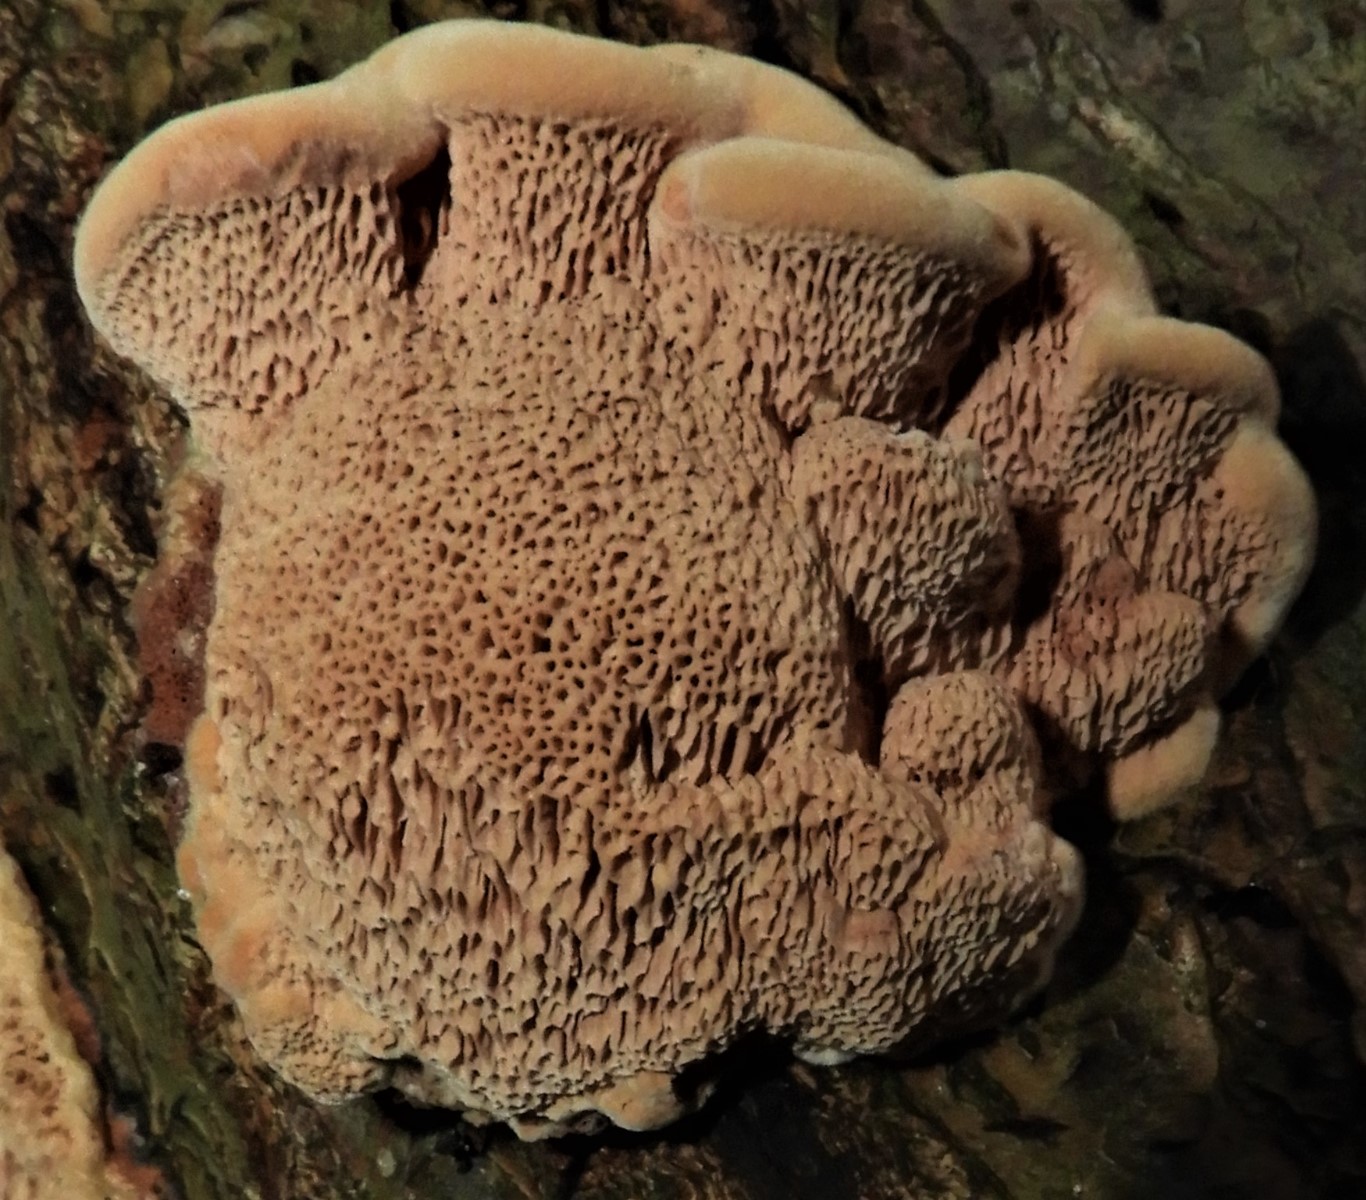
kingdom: Fungi
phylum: Basidiomycota
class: Agaricomycetes
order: Hymenochaetales
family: Hymenochaetaceae
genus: Xanthoporia
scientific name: Xanthoporia radiata
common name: elle-spejlporesvamp
